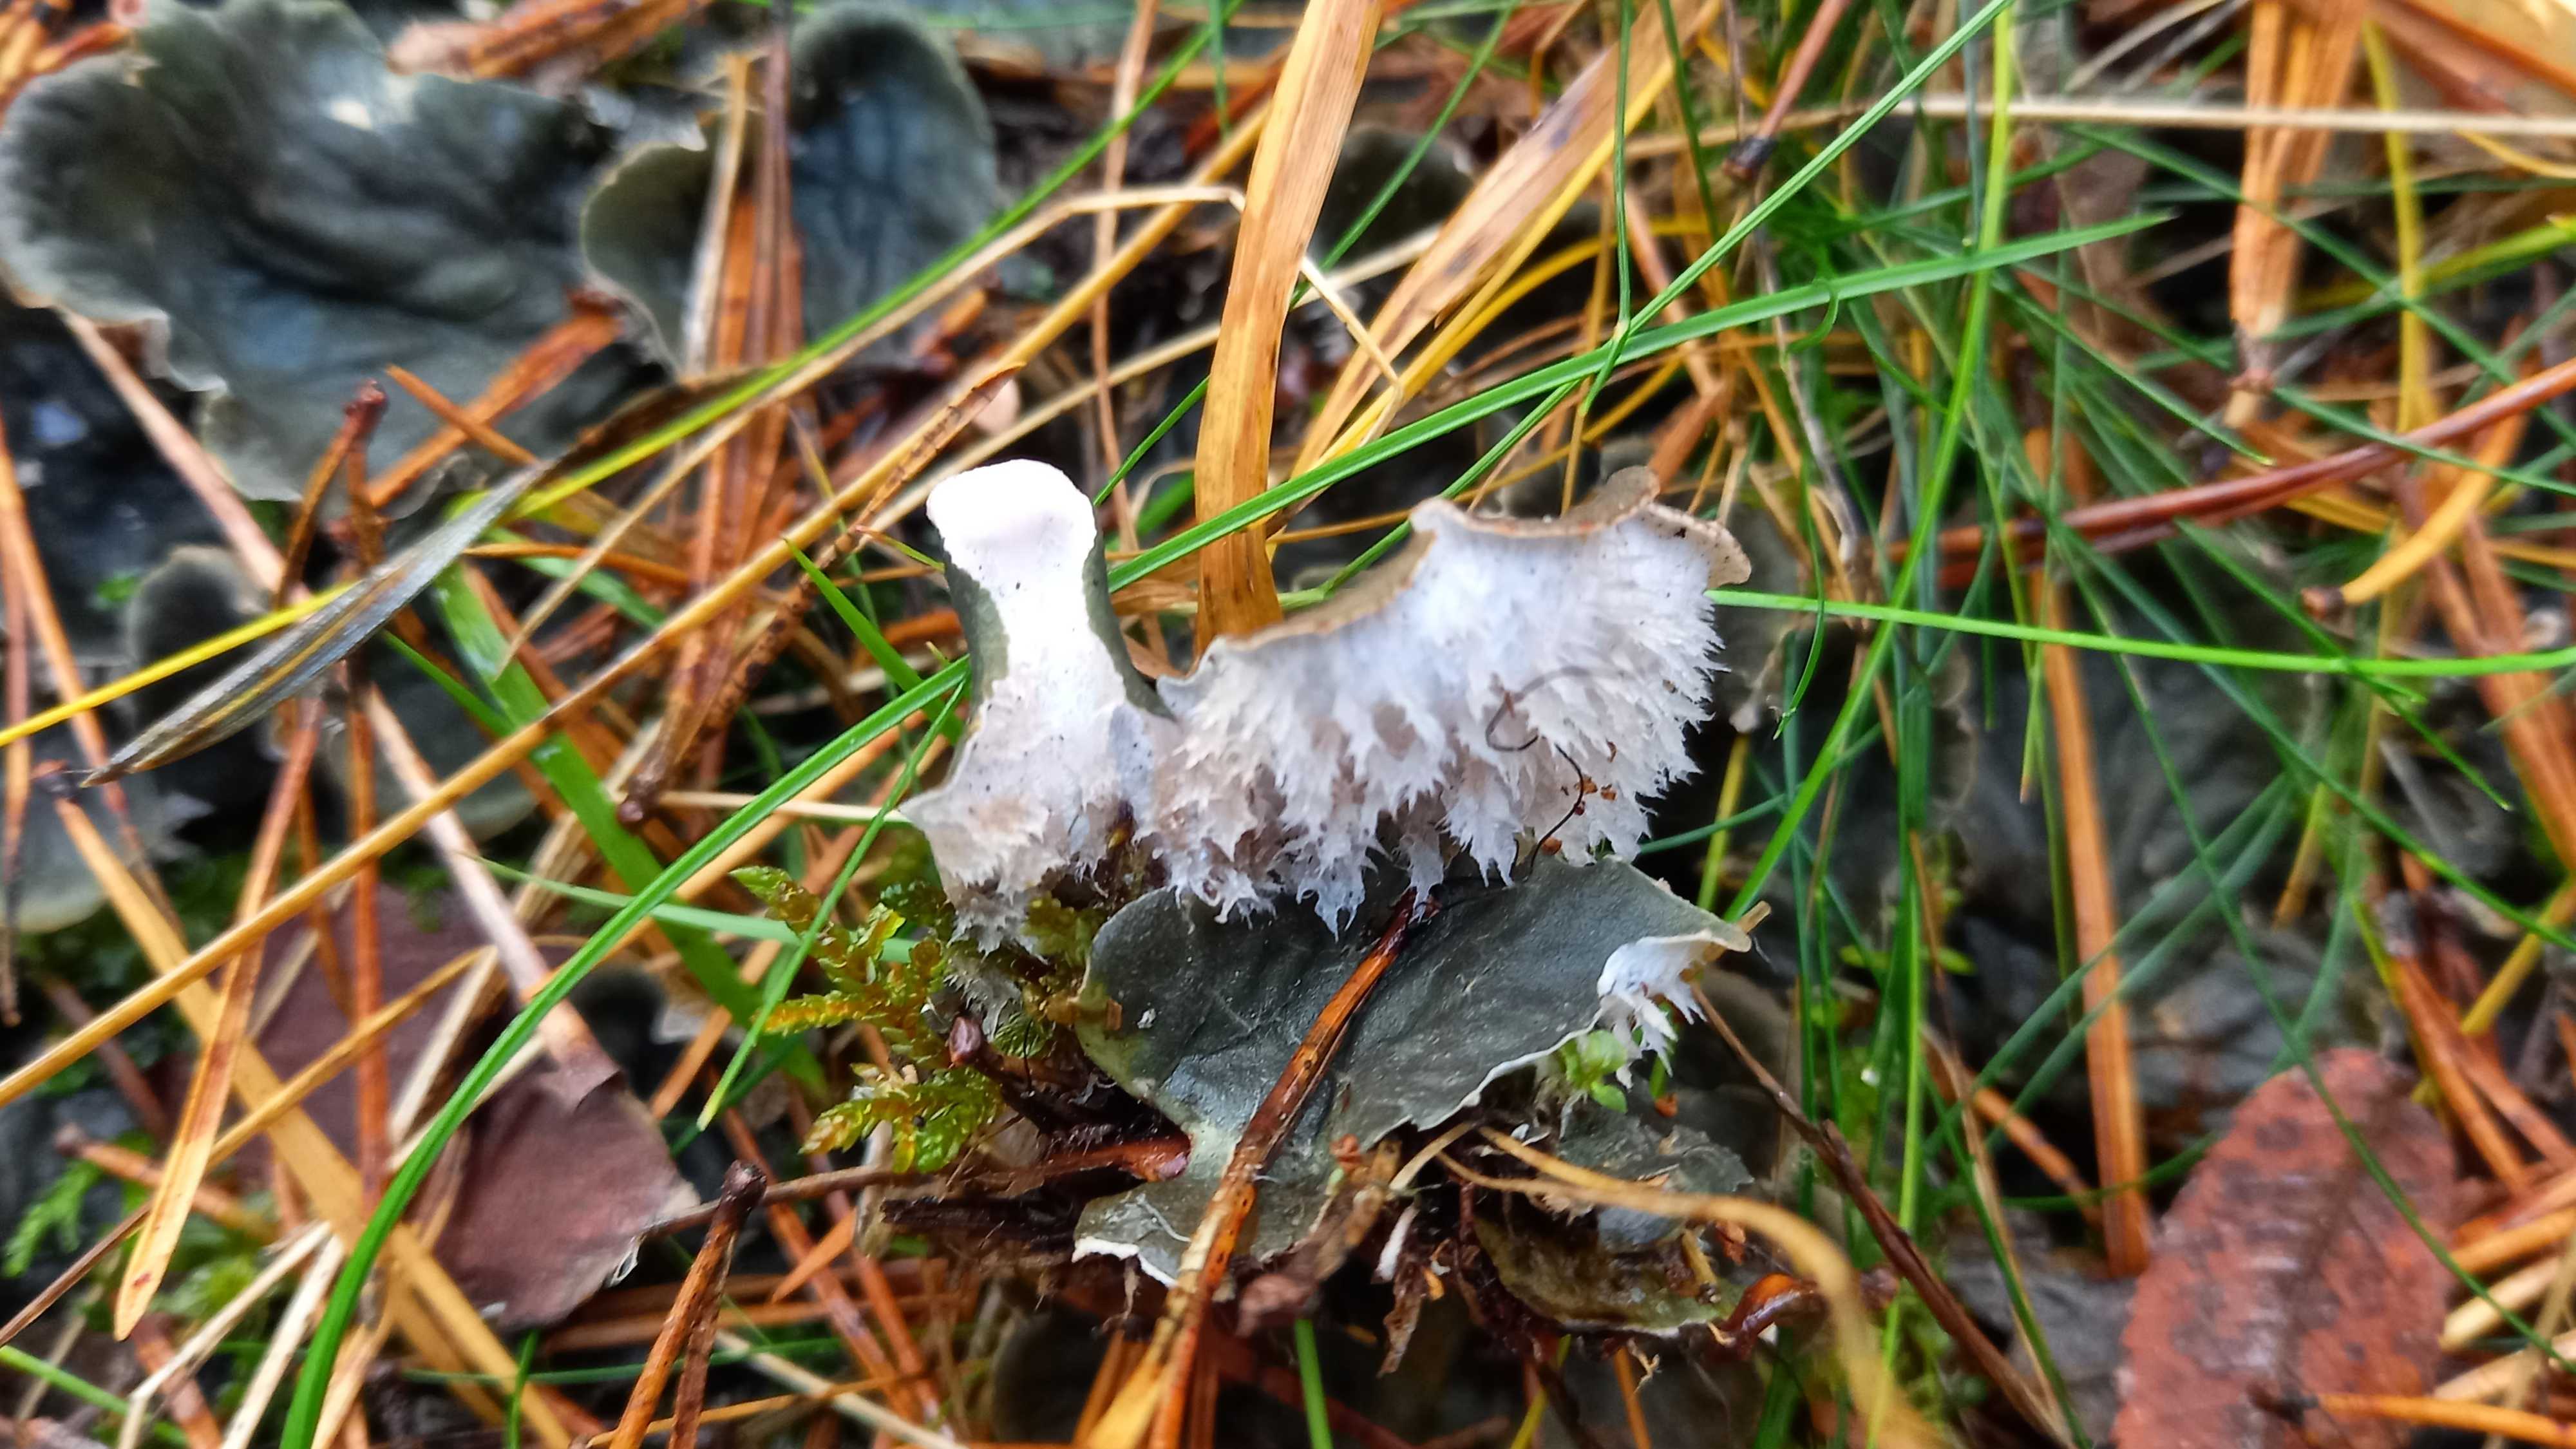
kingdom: Fungi
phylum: Ascomycota
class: Lecanoromycetes
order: Peltigerales
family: Peltigeraceae
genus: Peltigera
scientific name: Peltigera membranacea
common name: tynd skjoldlav
